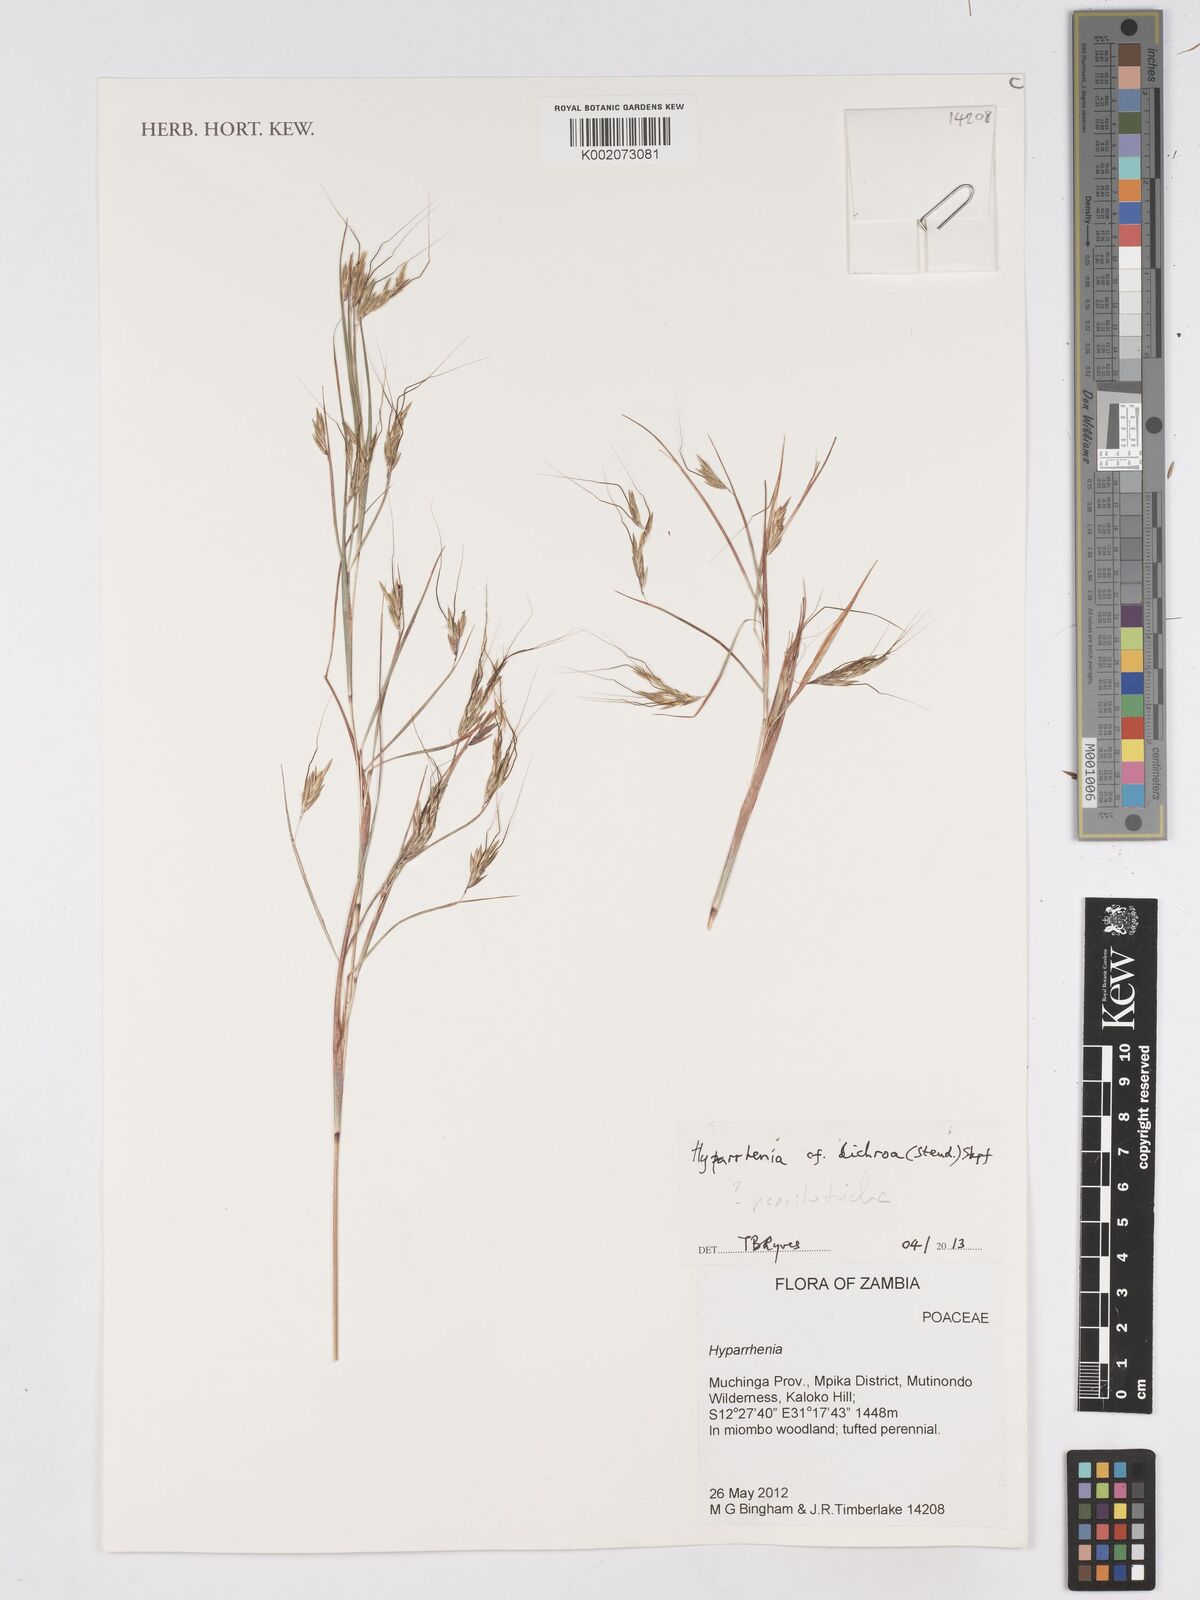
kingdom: Plantae
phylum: Tracheophyta
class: Liliopsida
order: Poales
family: Poaceae
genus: Hyparrhenia
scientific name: Hyparrhenia poecilotricha
